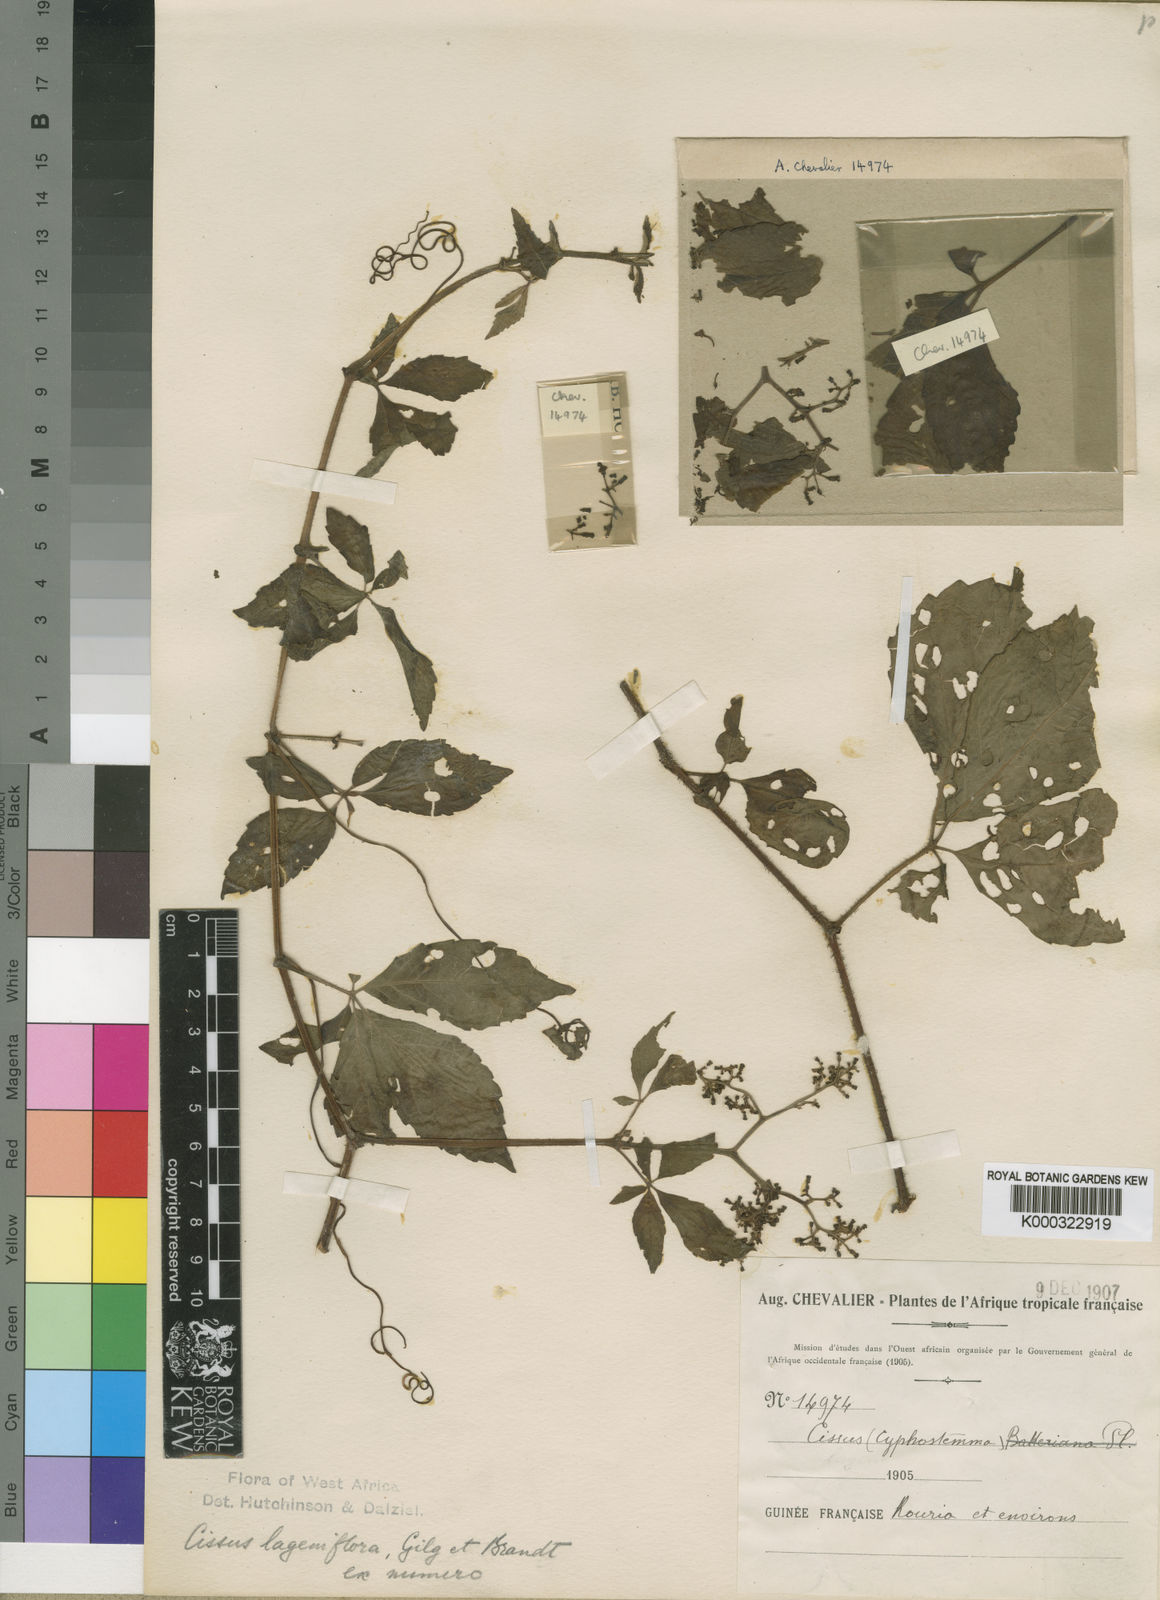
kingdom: Plantae
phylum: Tracheophyta
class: Magnoliopsida
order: Vitales
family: Vitaceae
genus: Cyphostemma
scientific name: Cyphostemma lageniflorum
